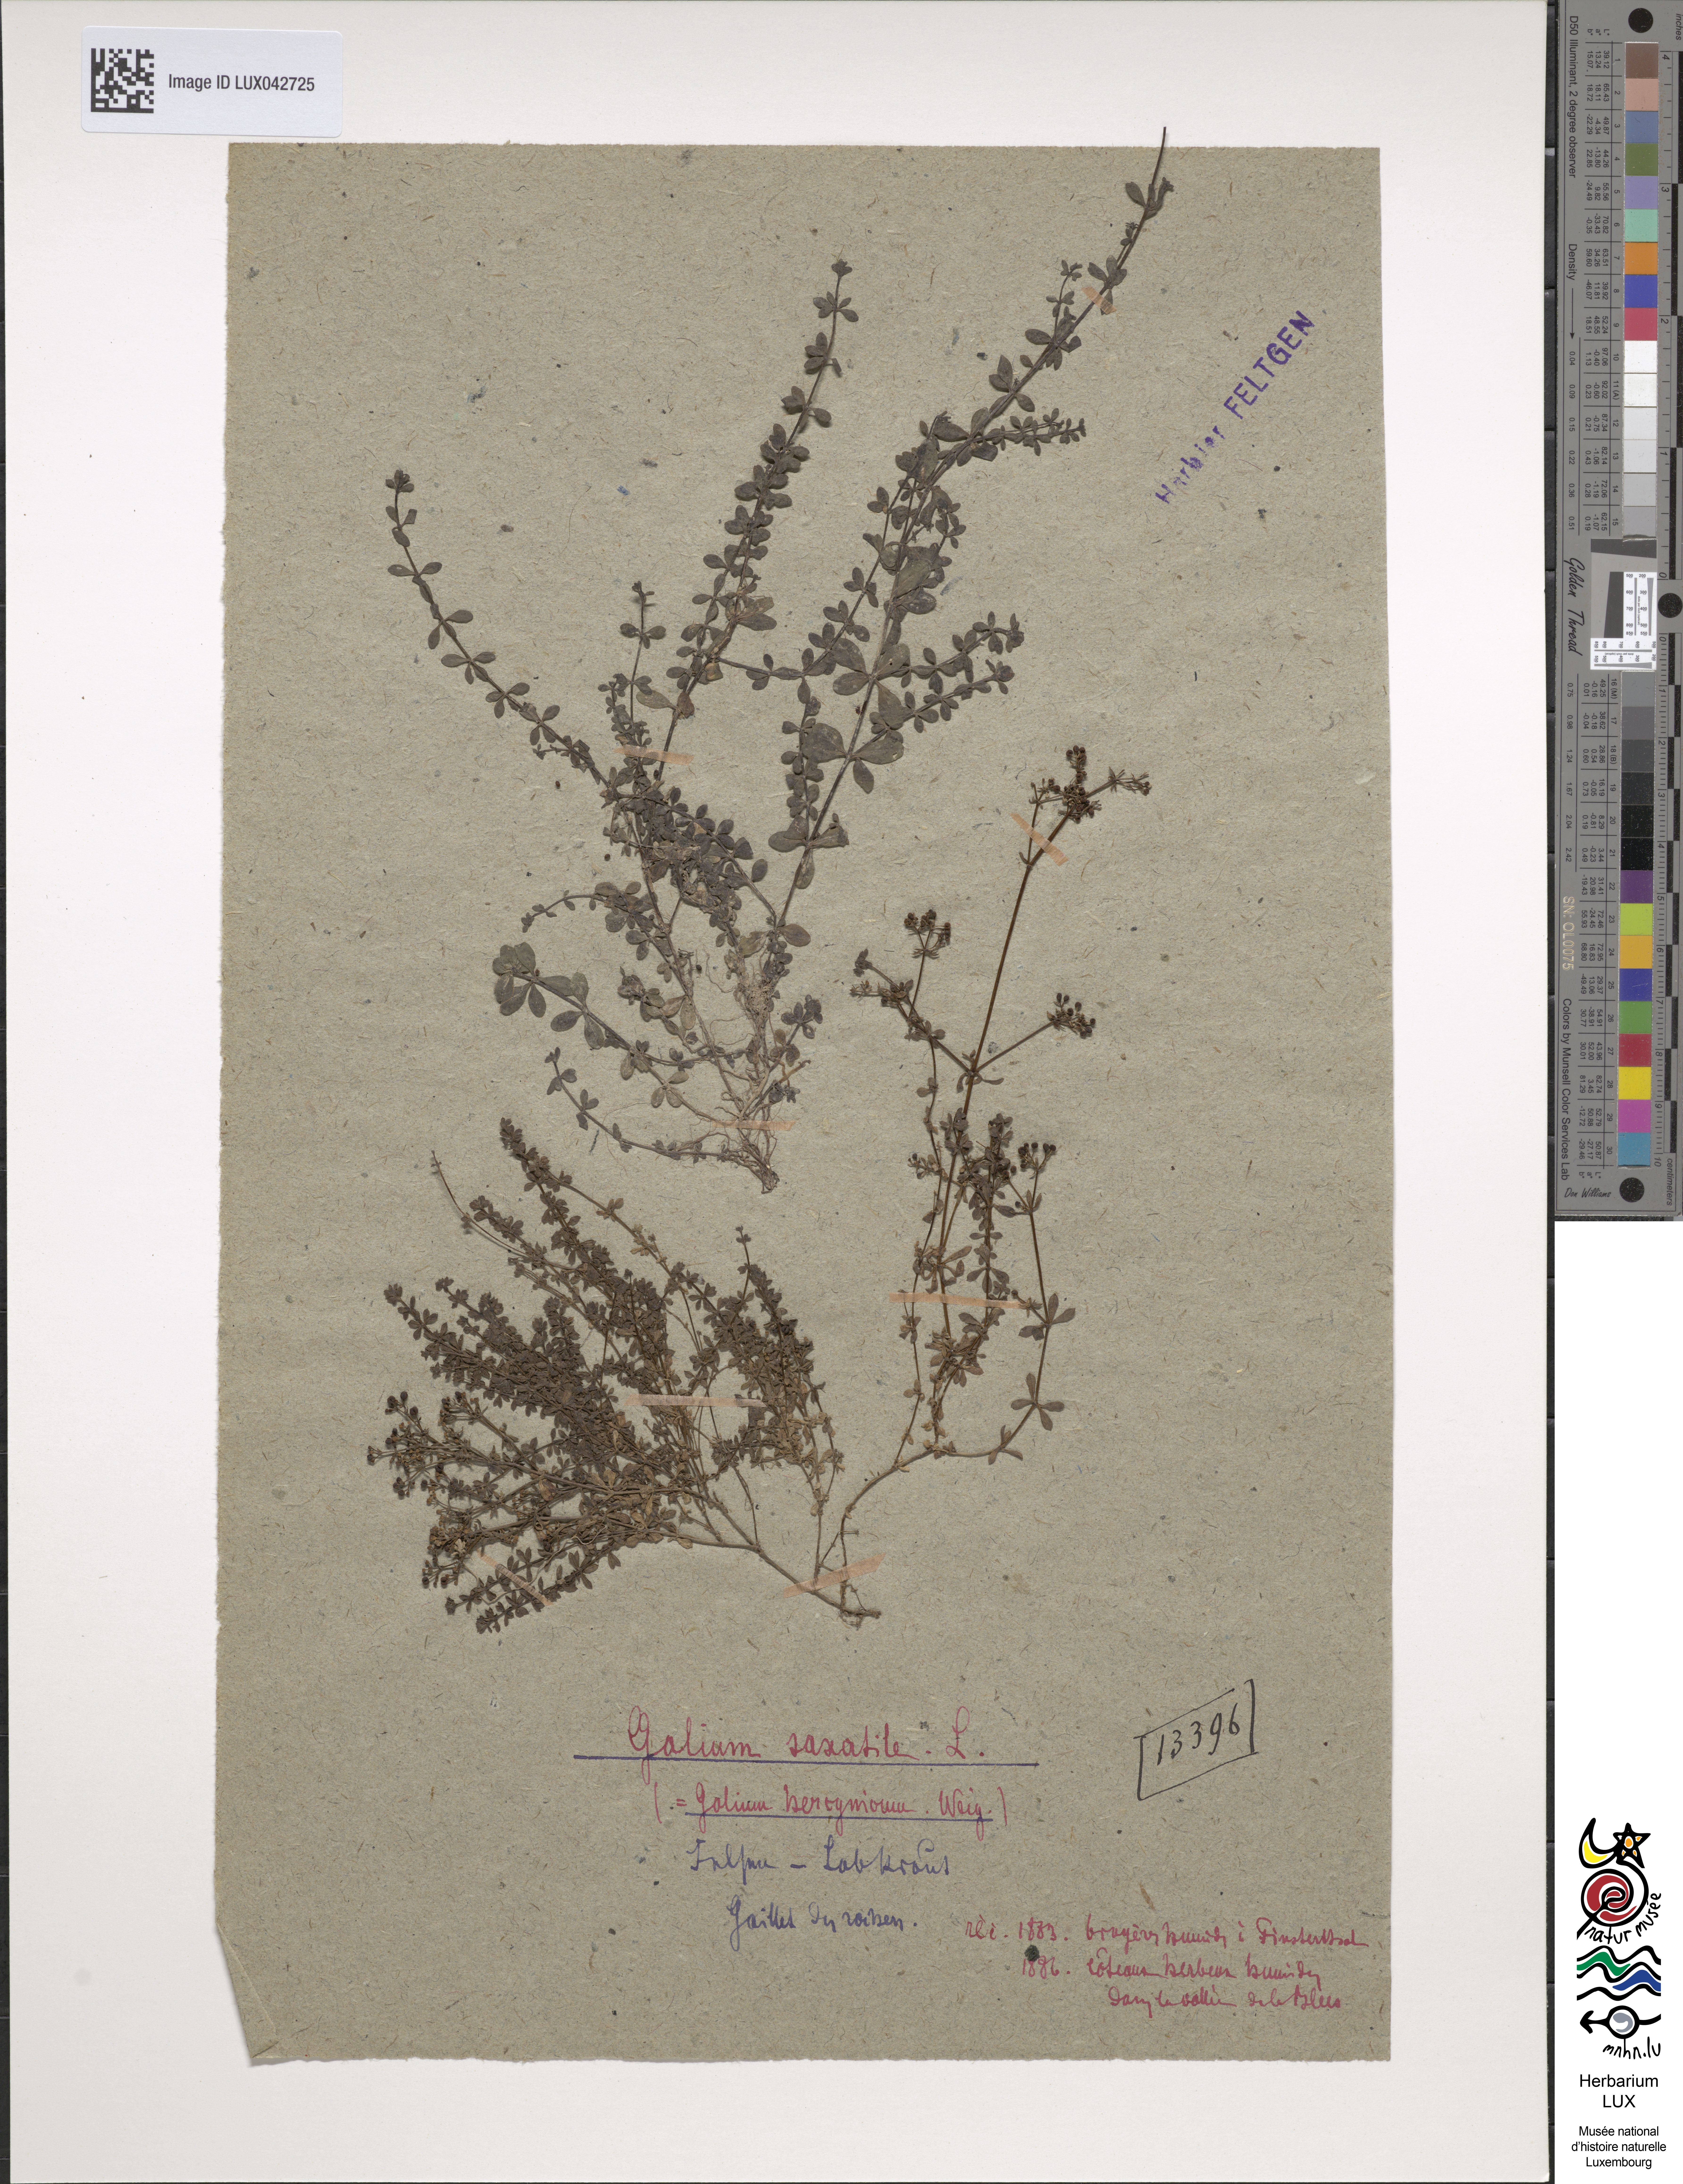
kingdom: Plantae
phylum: Tracheophyta
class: Magnoliopsida
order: Gentianales
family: Rubiaceae
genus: Galium
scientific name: Galium saxatile
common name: Heath bedstraw
